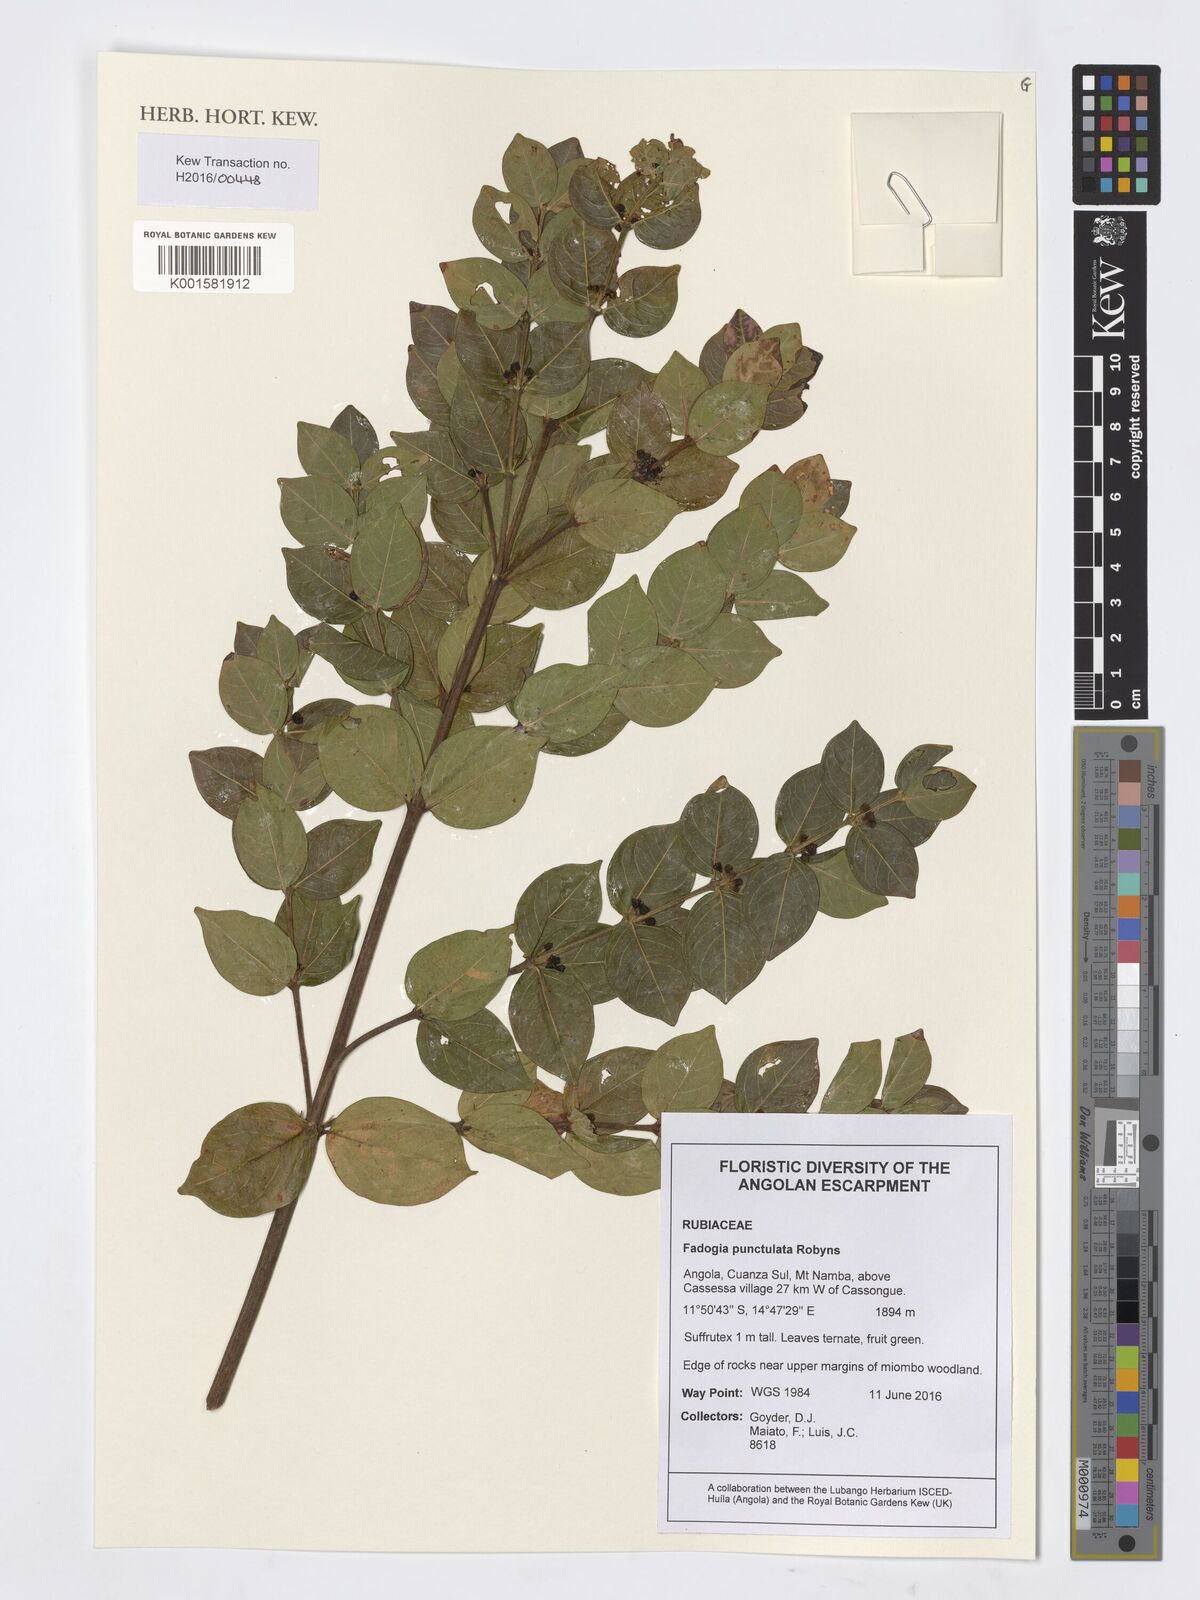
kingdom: Plantae
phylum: Tracheophyta
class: Magnoliopsida
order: Gentianales
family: Rubiaceae
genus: Fadogia
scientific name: Fadogia punctulata
